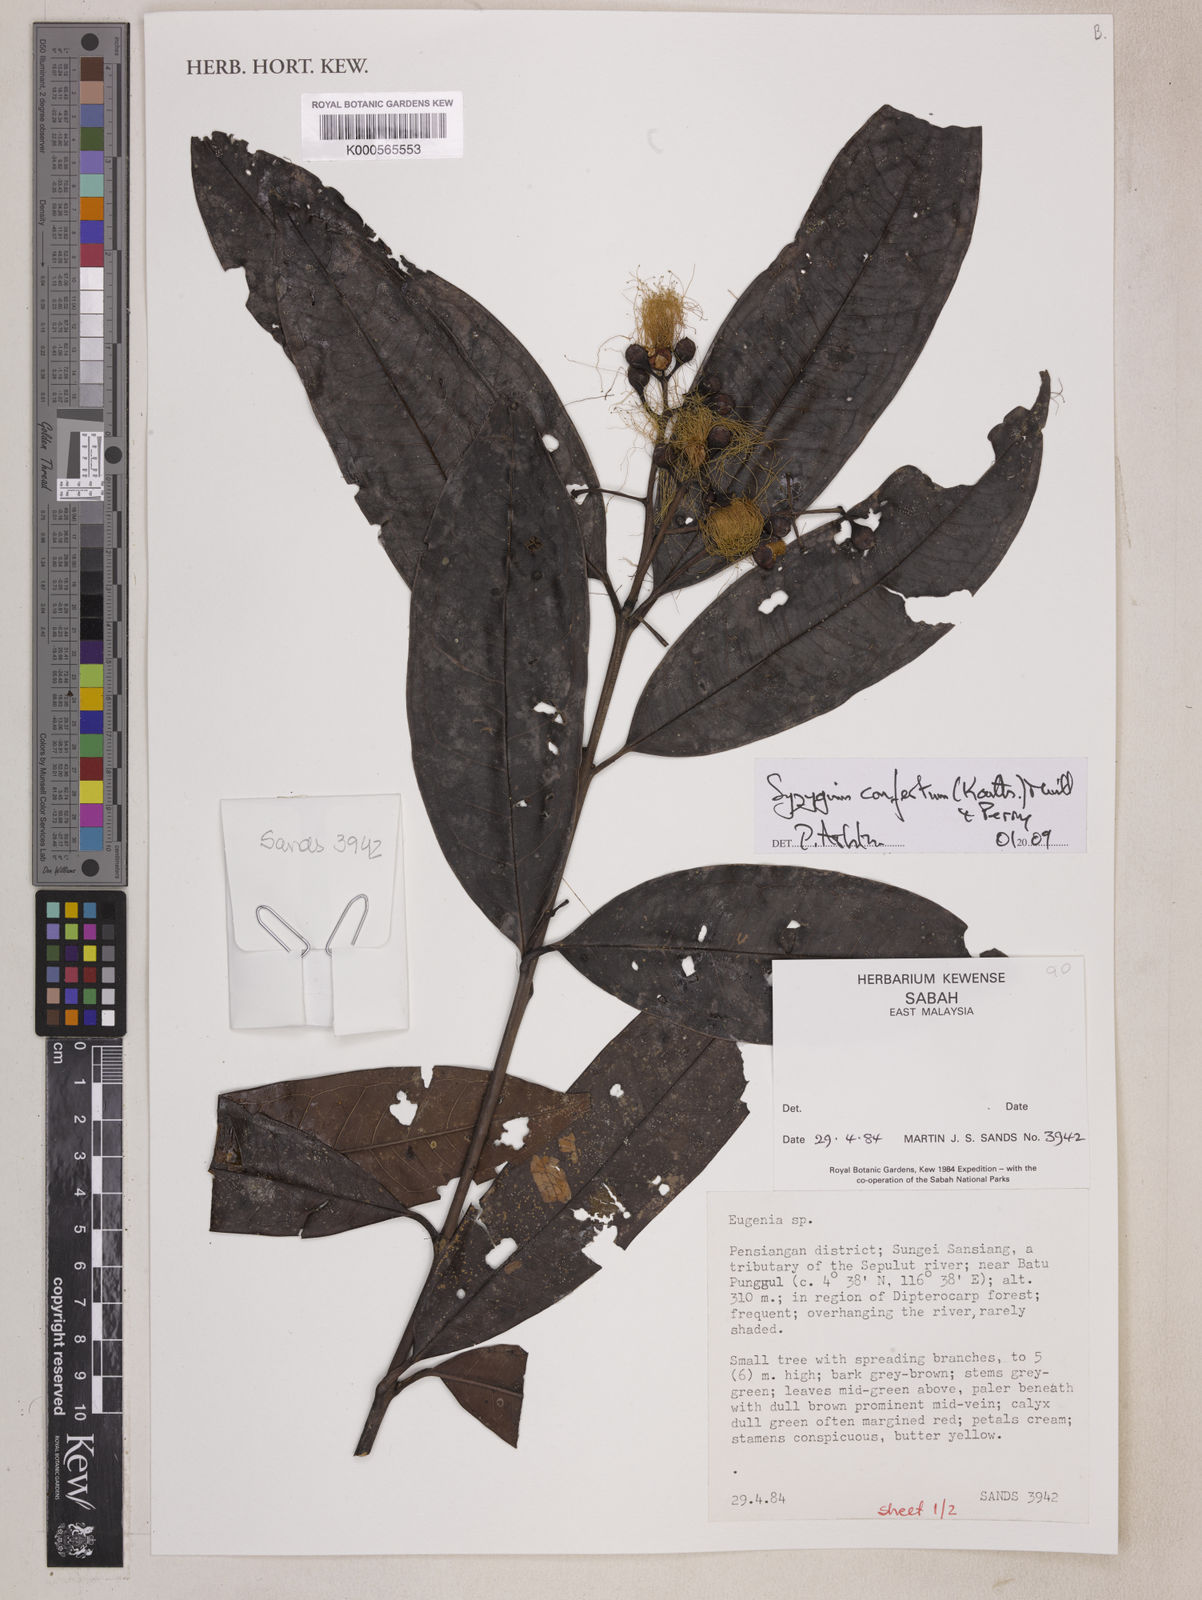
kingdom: Plantae
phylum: Tracheophyta
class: Magnoliopsida
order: Myrtales
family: Myrtaceae
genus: Syzygium
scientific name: Syzygium confertum
